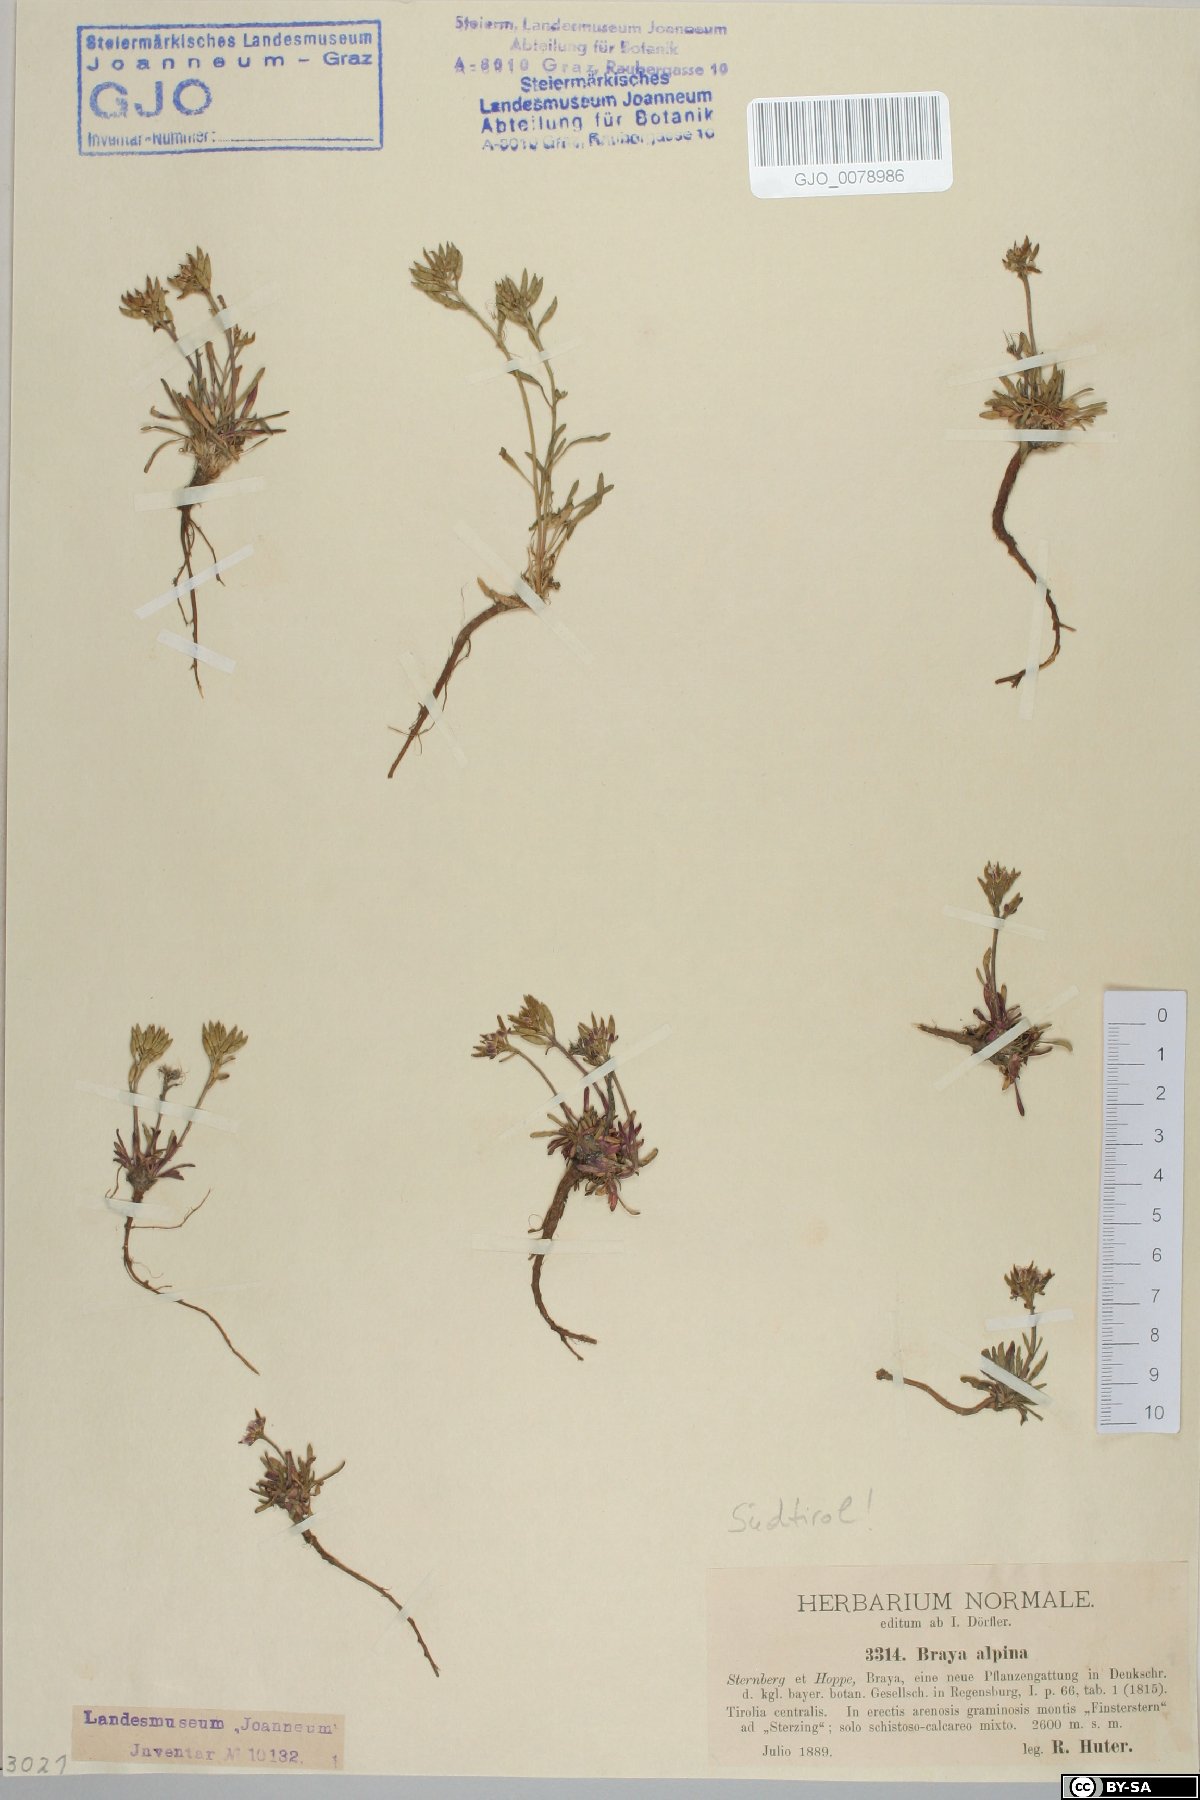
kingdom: Plantae
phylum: Tracheophyta
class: Magnoliopsida
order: Brassicales
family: Brassicaceae
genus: Braya
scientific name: Braya alpina
